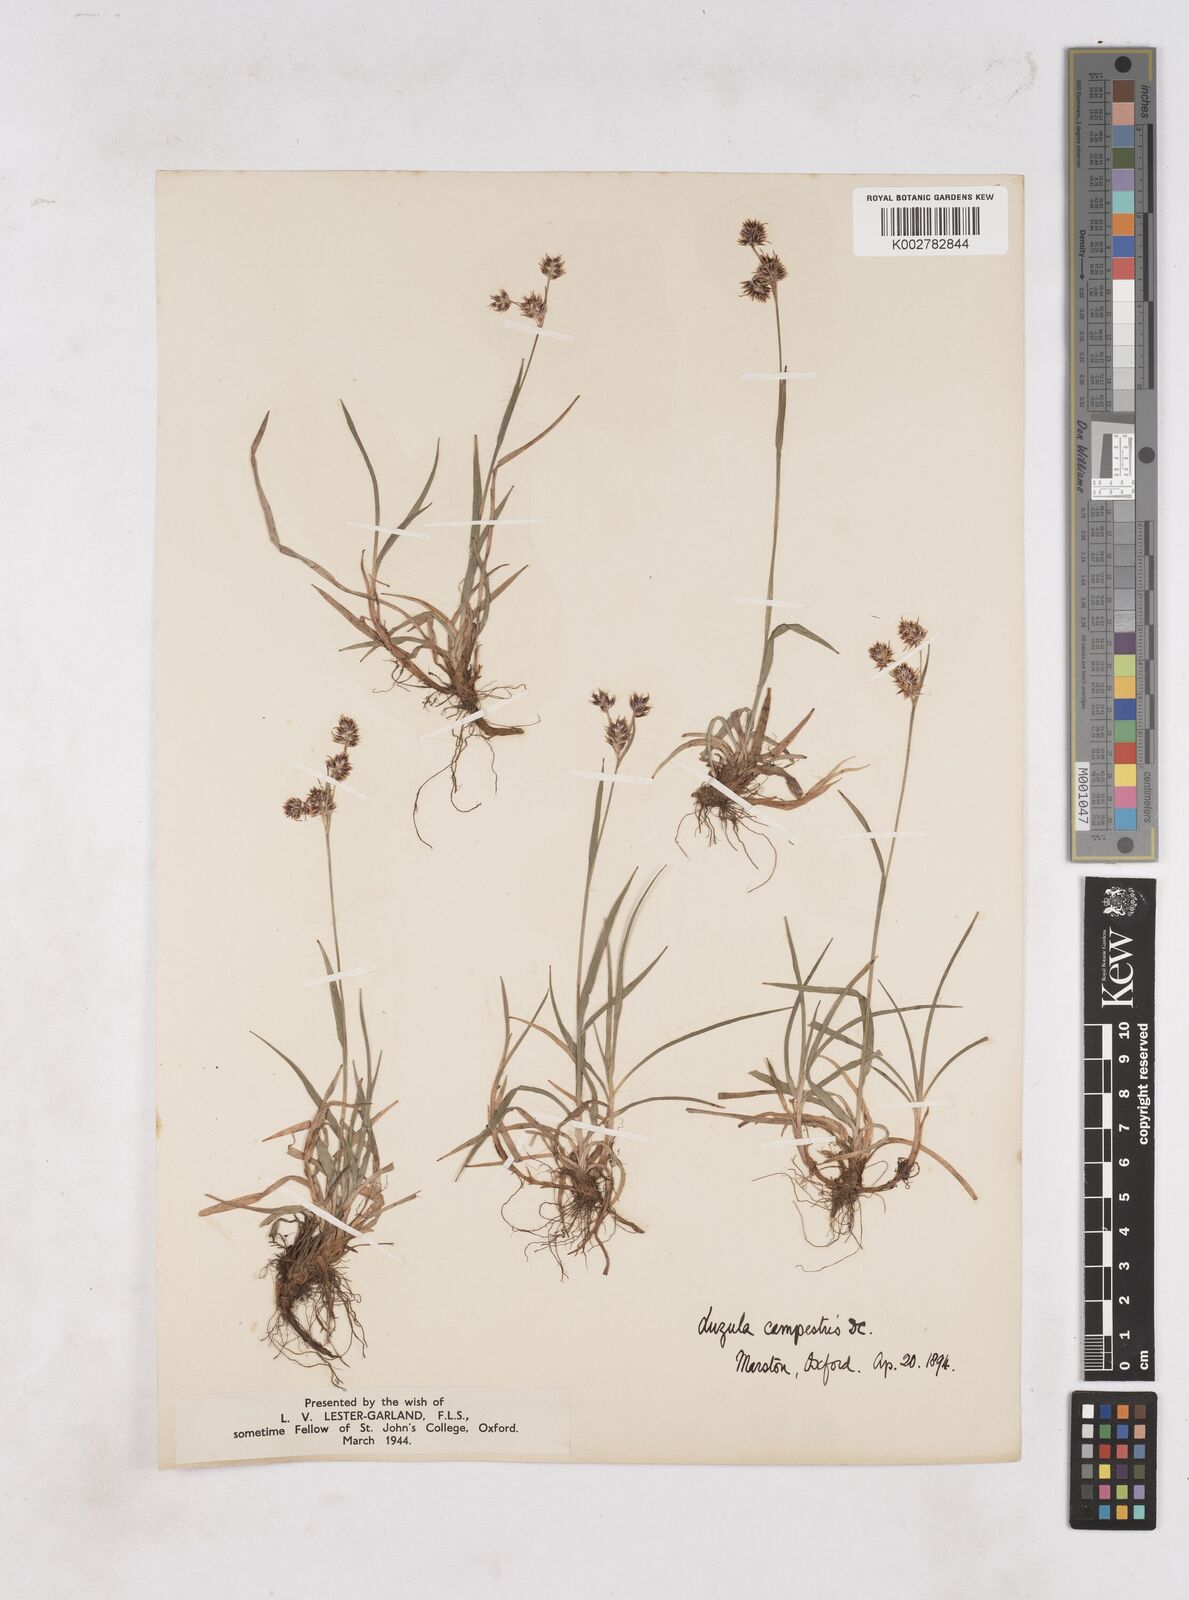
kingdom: Plantae
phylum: Tracheophyta
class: Liliopsida
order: Poales
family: Juncaceae
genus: Luzula
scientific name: Luzula campestris
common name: Field wood-rush
